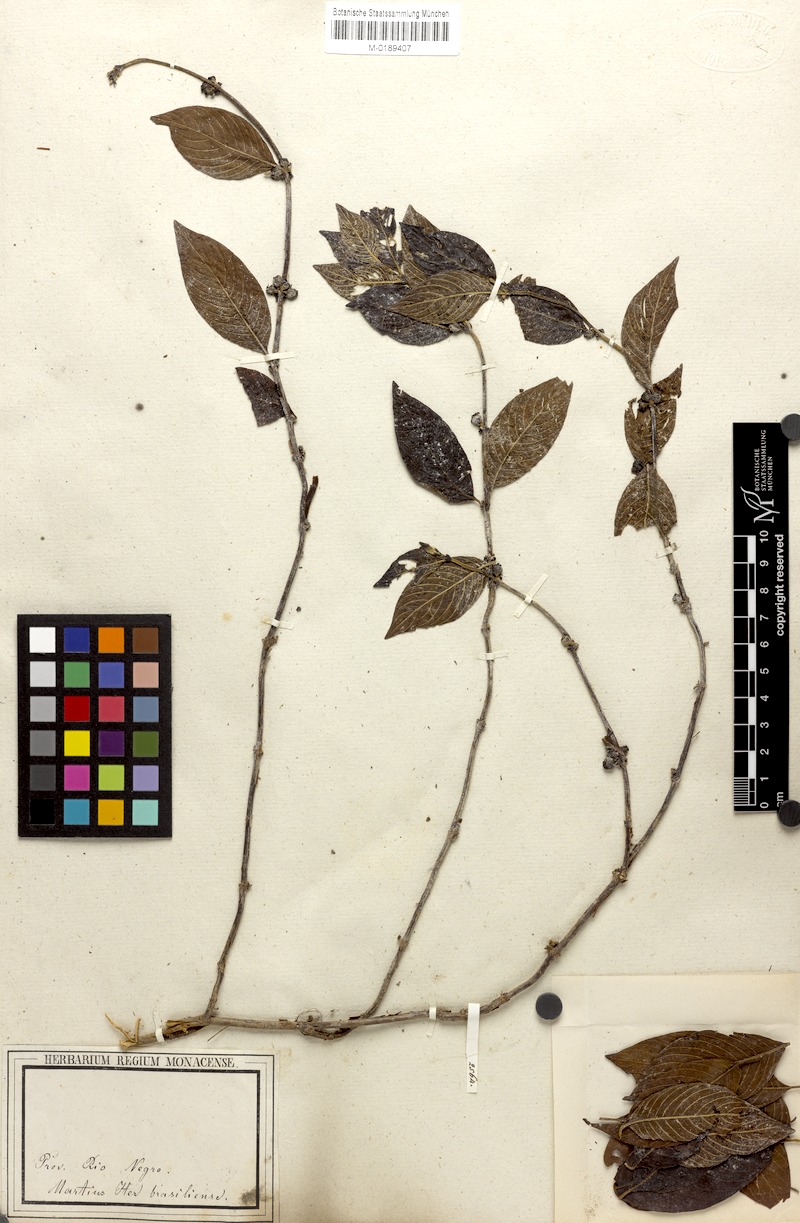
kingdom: Plantae
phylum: Tracheophyta
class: Magnoliopsida
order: Gentianales
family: Rubiaceae
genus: Sabicea
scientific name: Sabicea panamensis
